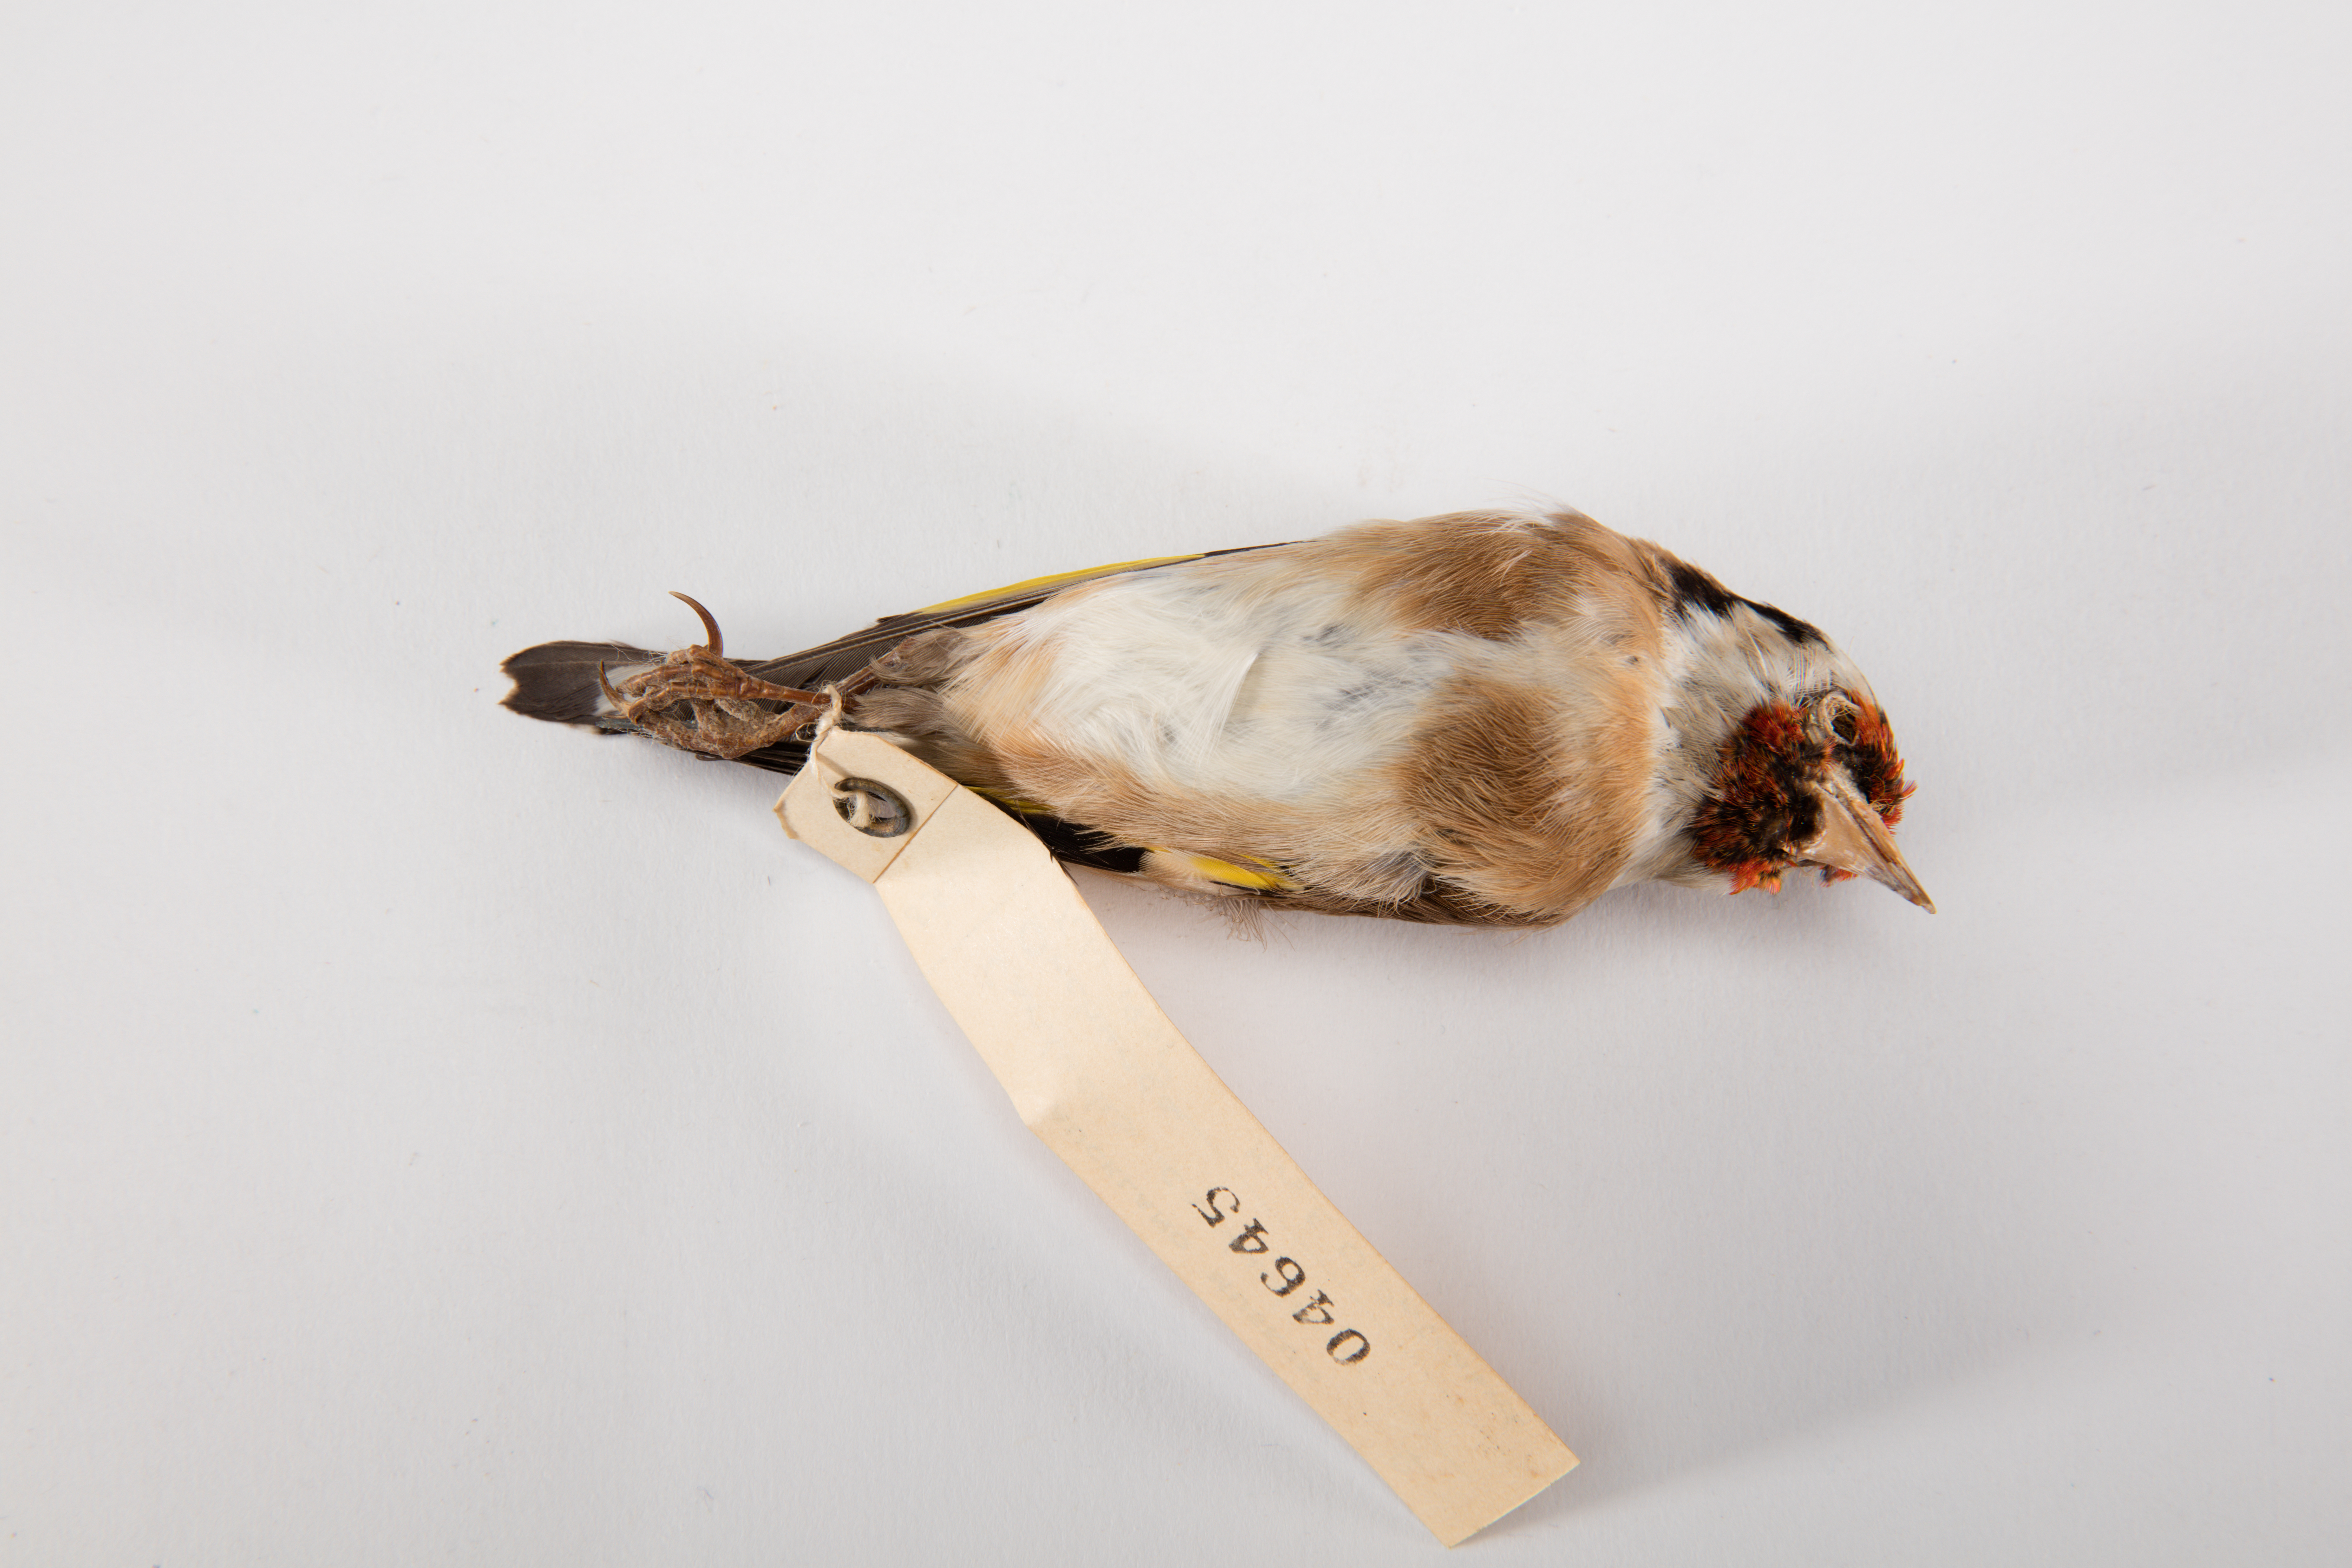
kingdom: Animalia
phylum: Chordata
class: Aves
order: Passeriformes
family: Fringillidae
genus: Carduelis
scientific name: Carduelis carduelis
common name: European goldfinch
